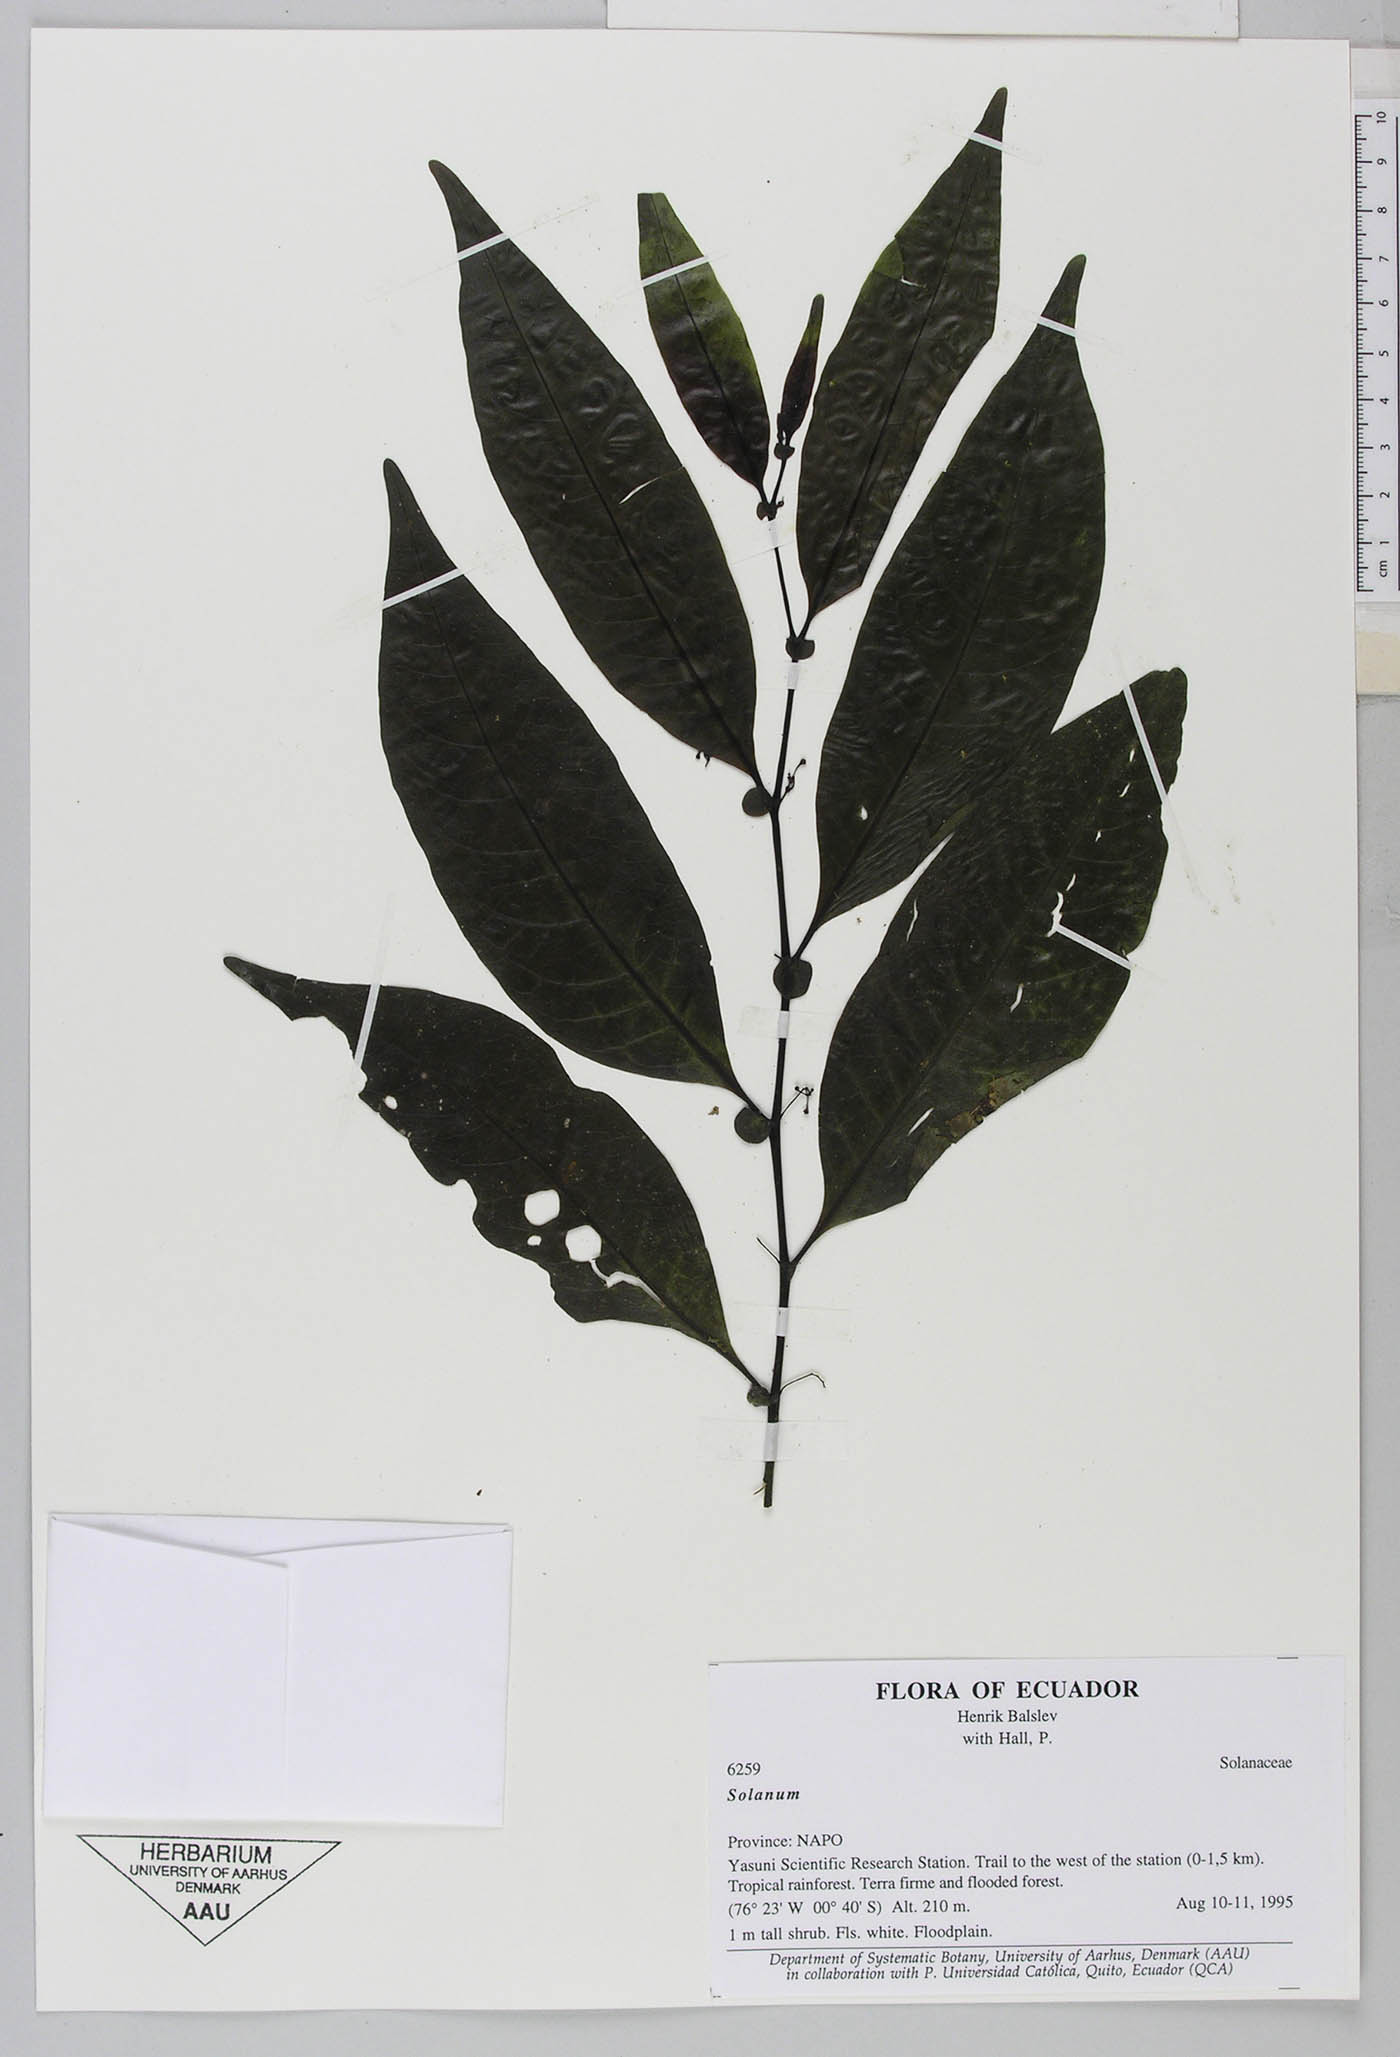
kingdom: Plantae
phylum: Tracheophyta
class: Magnoliopsida
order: Solanales
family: Solanaceae
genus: Solanum
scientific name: Solanum leptopodum
